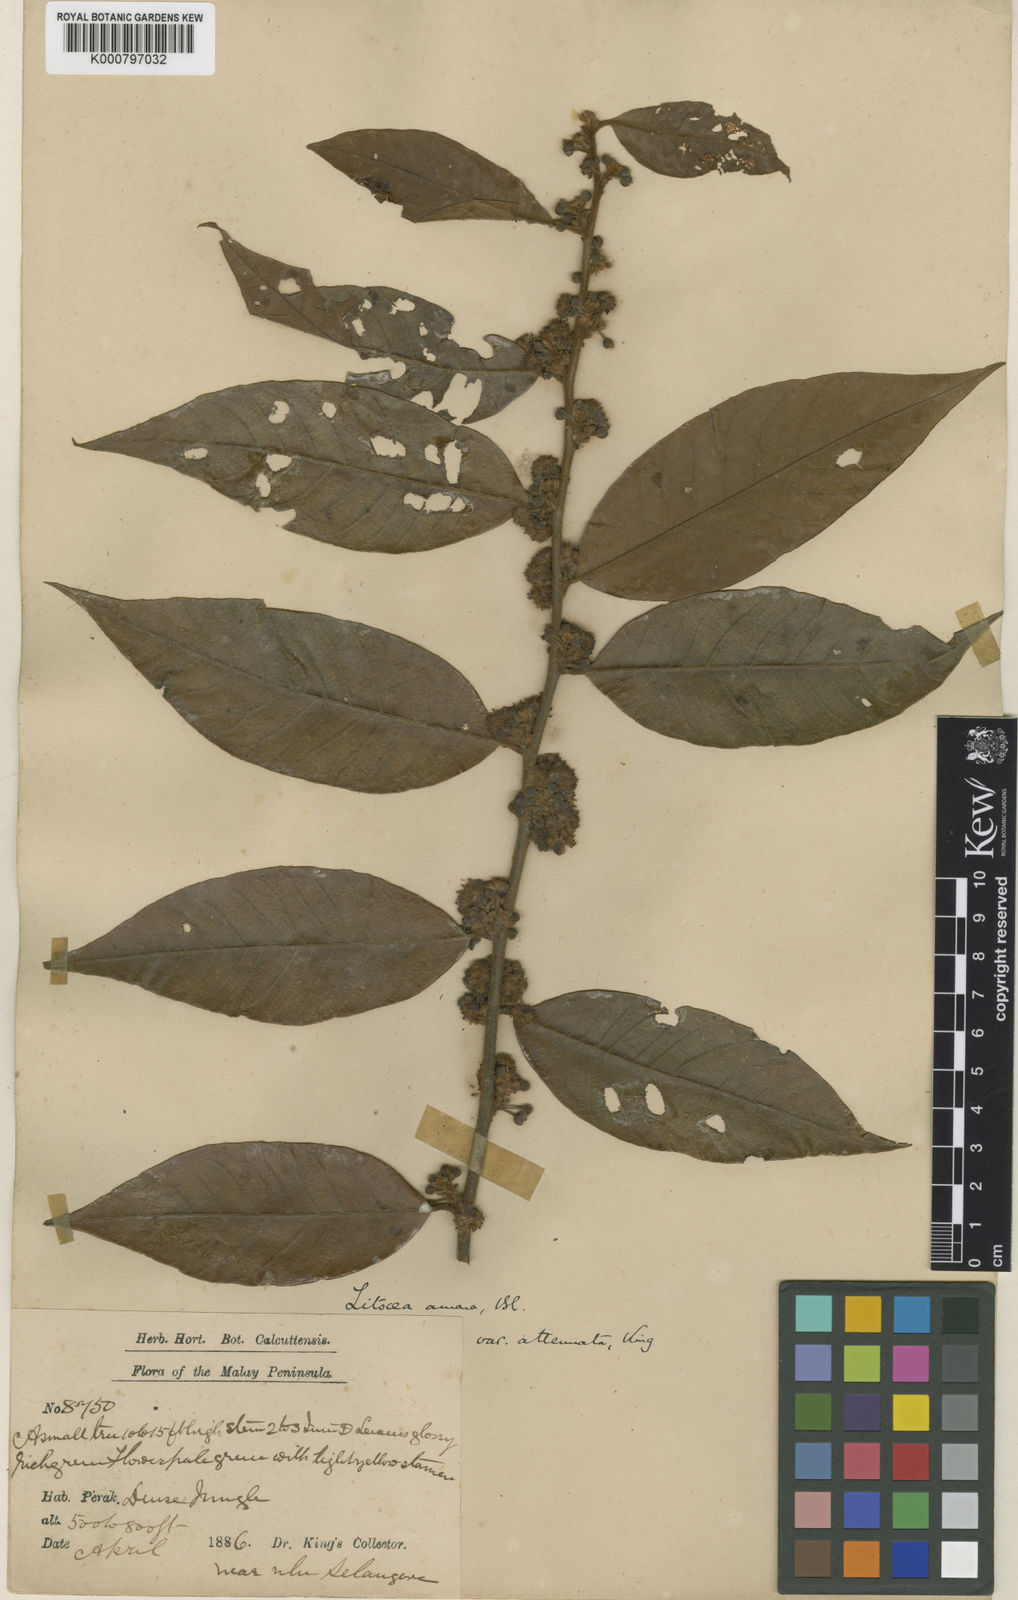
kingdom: Plantae
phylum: Tracheophyta
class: Magnoliopsida
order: Laurales
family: Lauraceae
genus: Litsea
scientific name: Litsea umbellata
